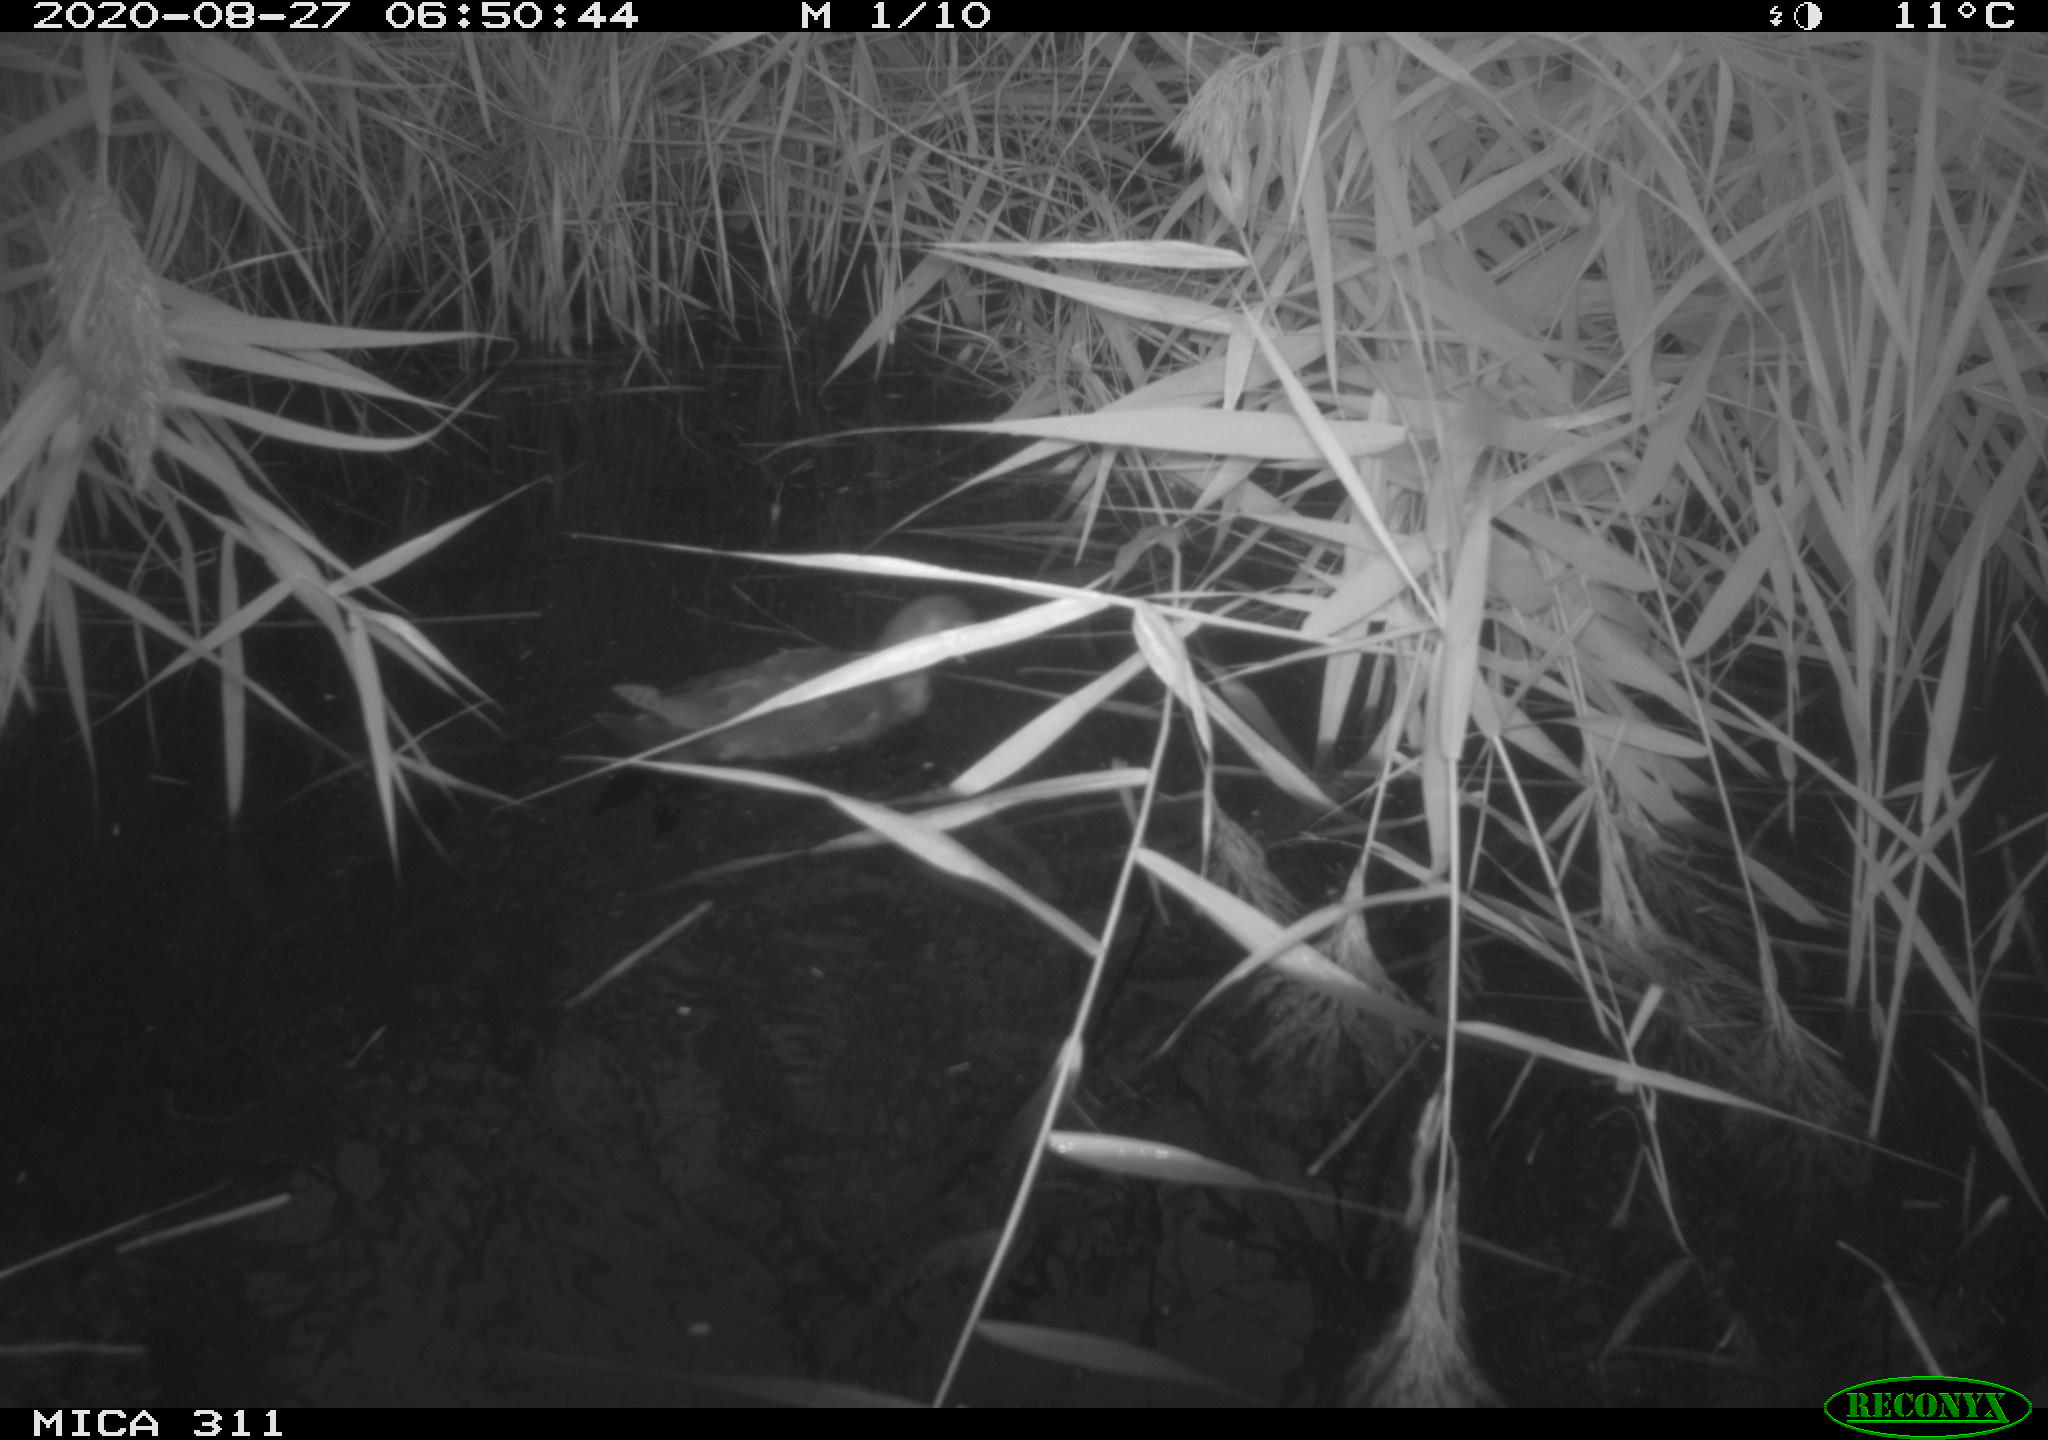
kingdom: Animalia
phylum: Chordata
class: Aves
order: Gruiformes
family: Rallidae
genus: Gallinula
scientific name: Gallinula chloropus
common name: Common moorhen
